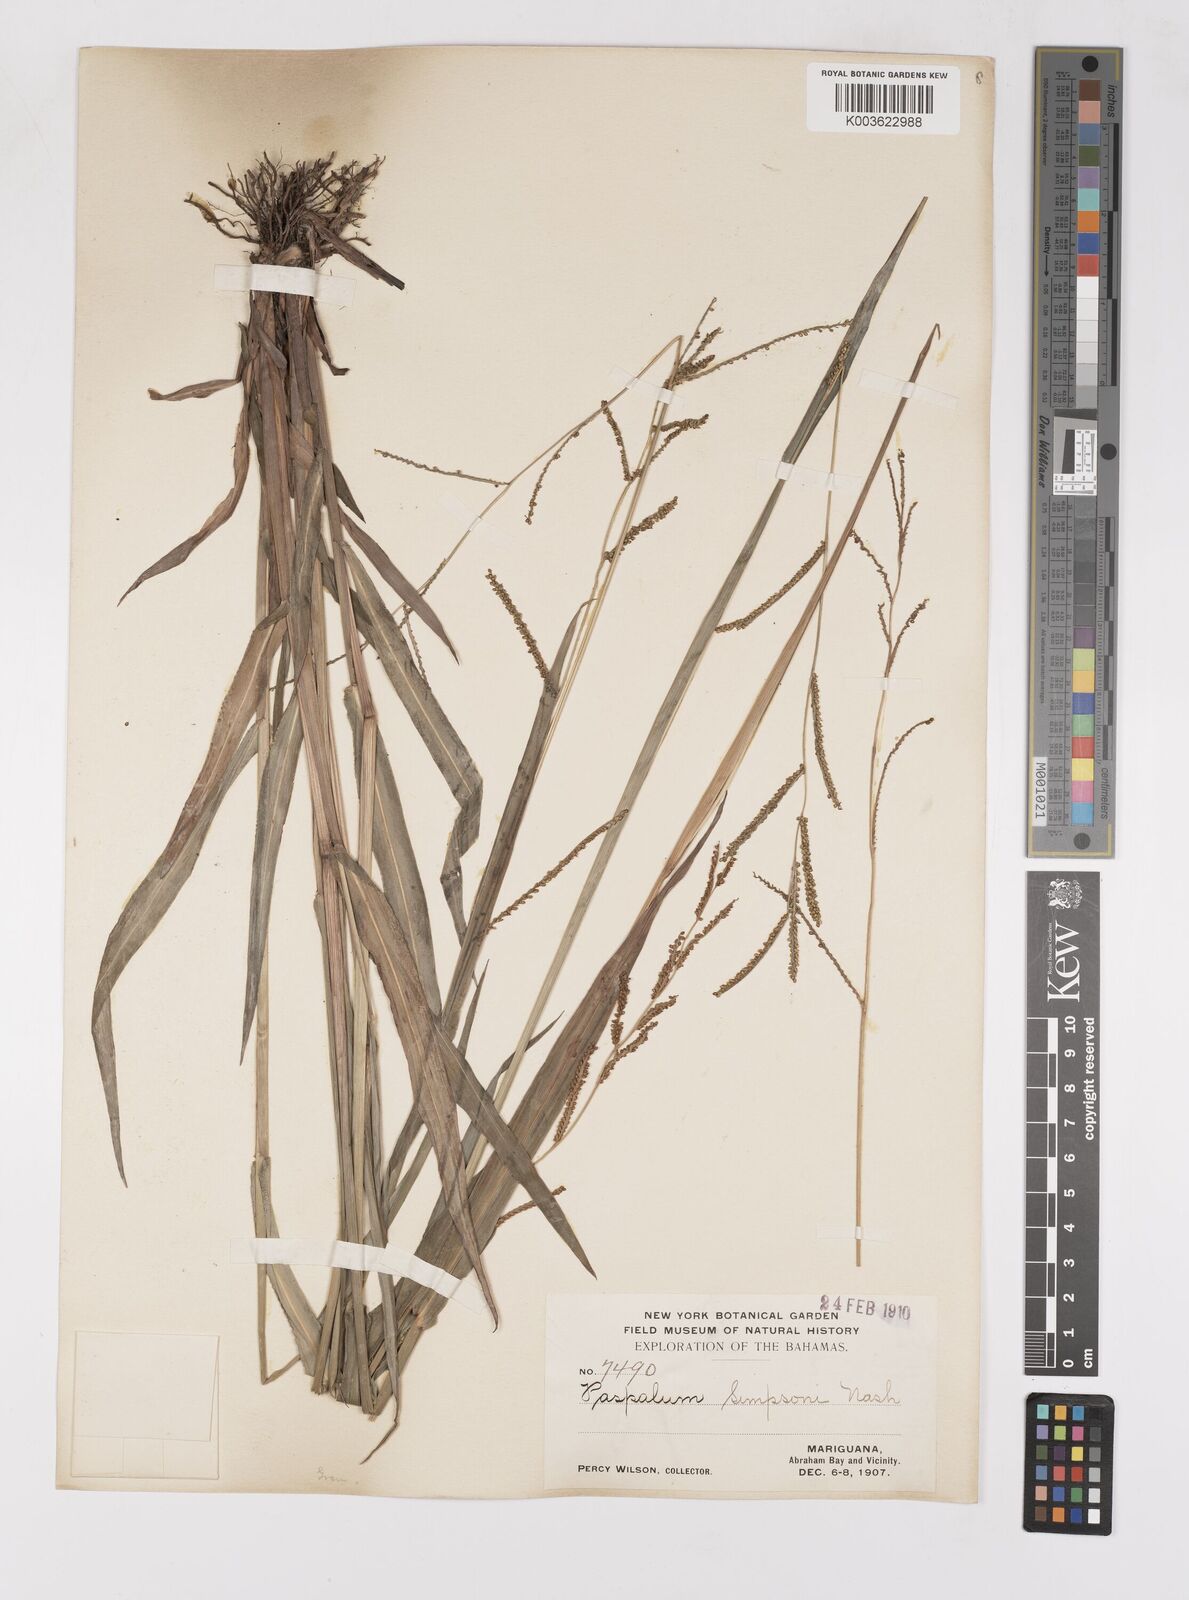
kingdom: Plantae
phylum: Tracheophyta
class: Liliopsida
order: Poales
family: Poaceae
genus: Paspalum
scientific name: Paspalum blodgettii
